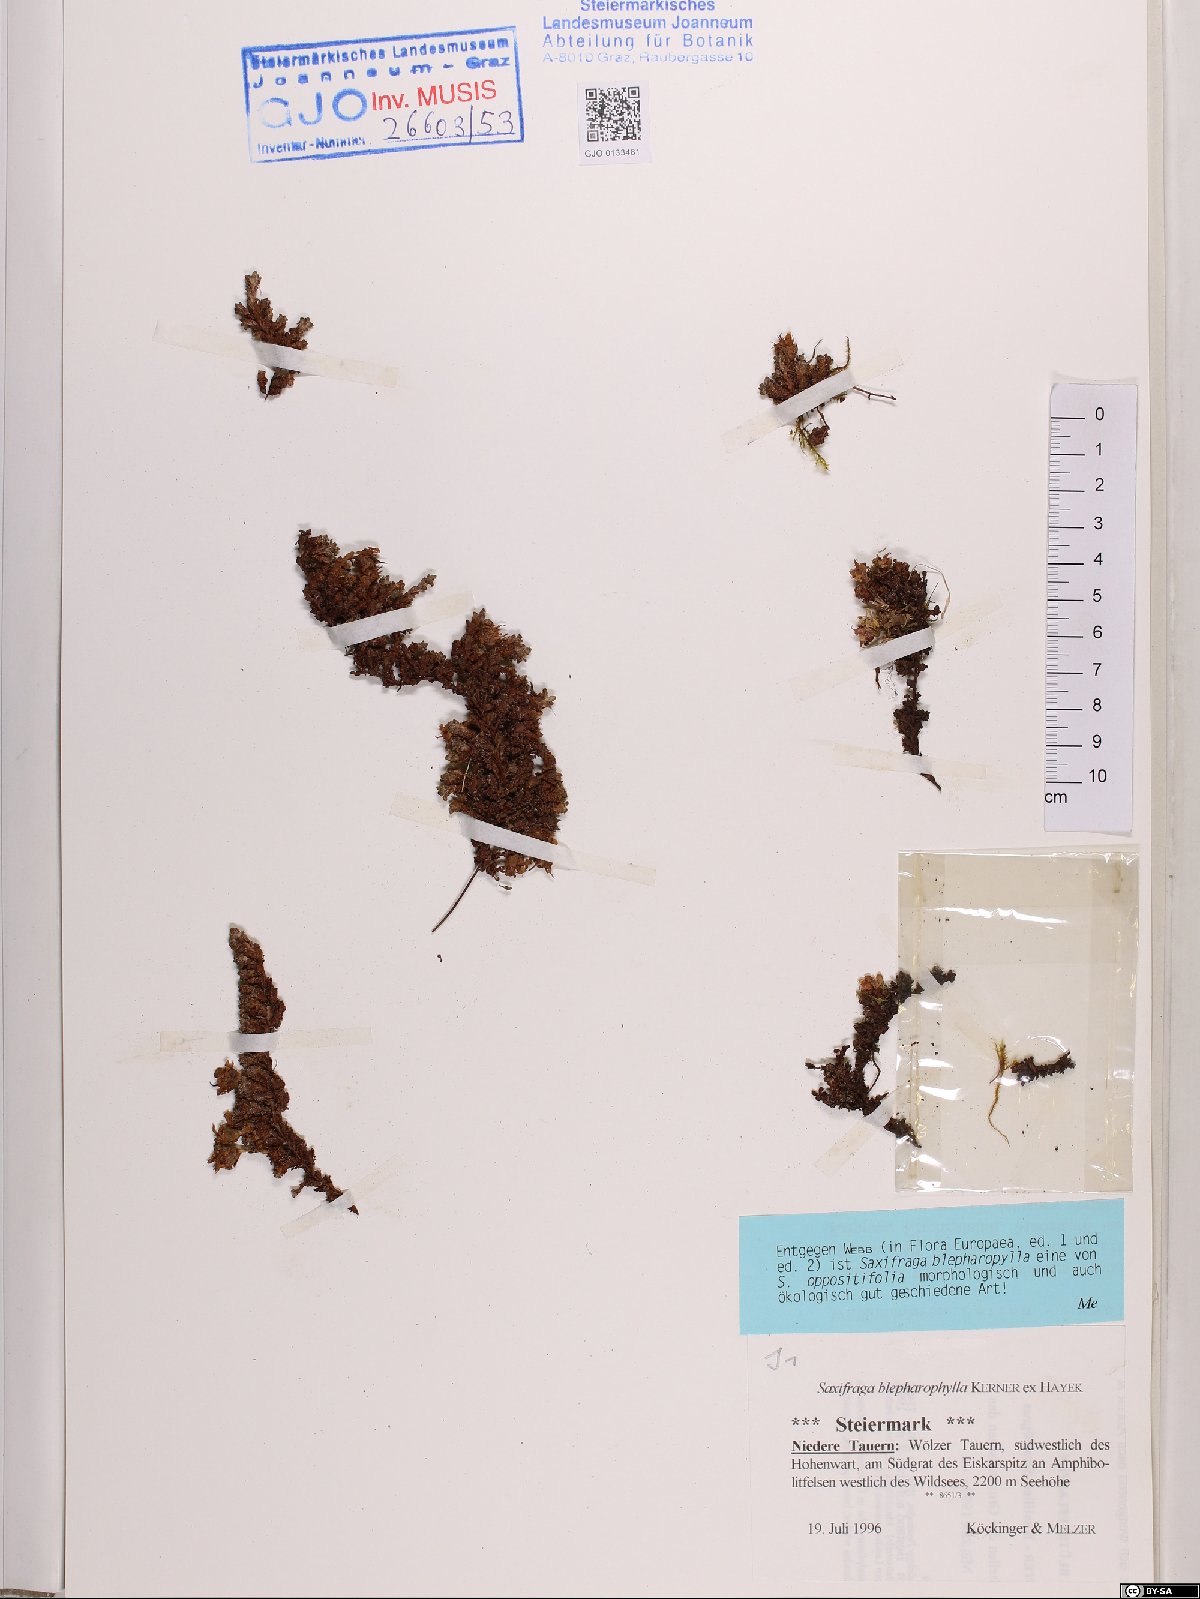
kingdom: Plantae
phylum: Tracheophyta
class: Magnoliopsida
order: Saxifragales
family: Saxifragaceae
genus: Saxifraga
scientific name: Saxifraga oppositifolia
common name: Purple saxifrage
